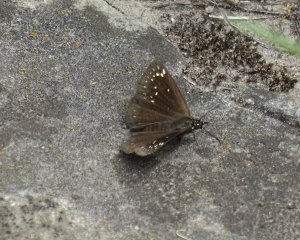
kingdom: Animalia
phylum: Arthropoda
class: Insecta
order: Lepidoptera
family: Hesperiidae
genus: Pholisora
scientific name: Pholisora catullus
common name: Common Sootywing
